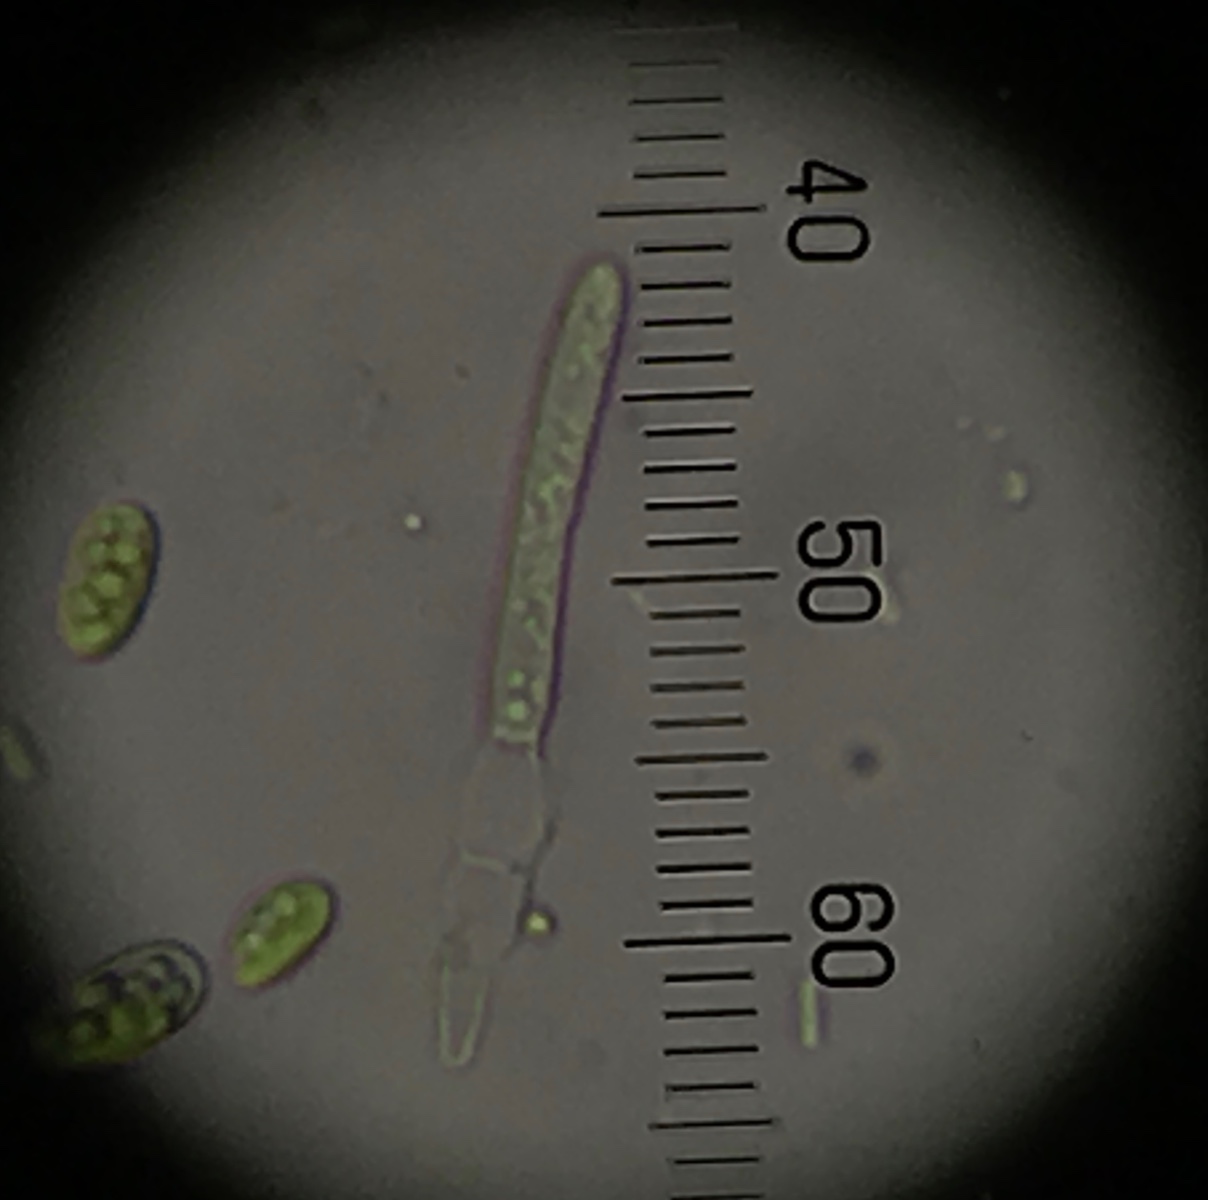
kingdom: Fungi
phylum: Ascomycota
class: Dothideomycetes
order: Mycosphaerellales
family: Mycosphaerellaceae
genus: Stromatoseptoria
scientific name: Stromatoseptoria castaneicola
